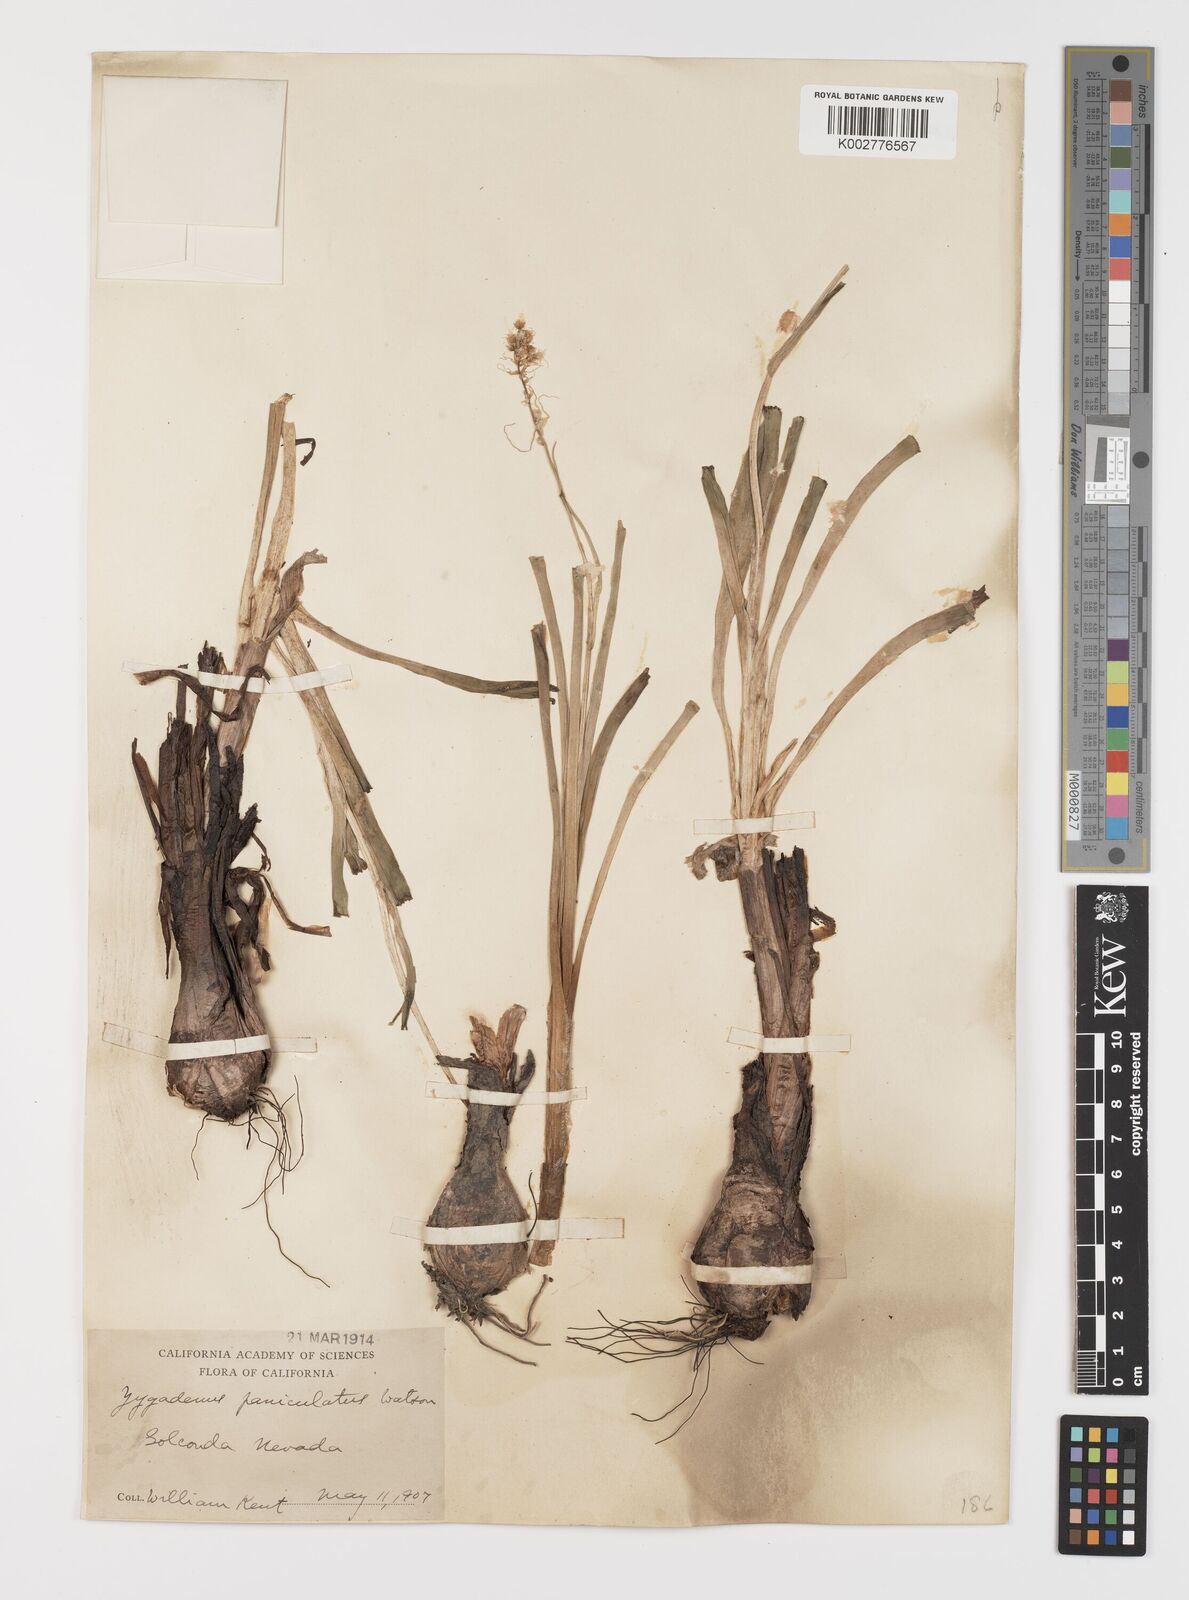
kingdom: Plantae
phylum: Tracheophyta
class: Liliopsida
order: Liliales
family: Melanthiaceae
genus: Toxicoscordion
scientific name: Toxicoscordion paniculatum
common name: Foothill death camas
